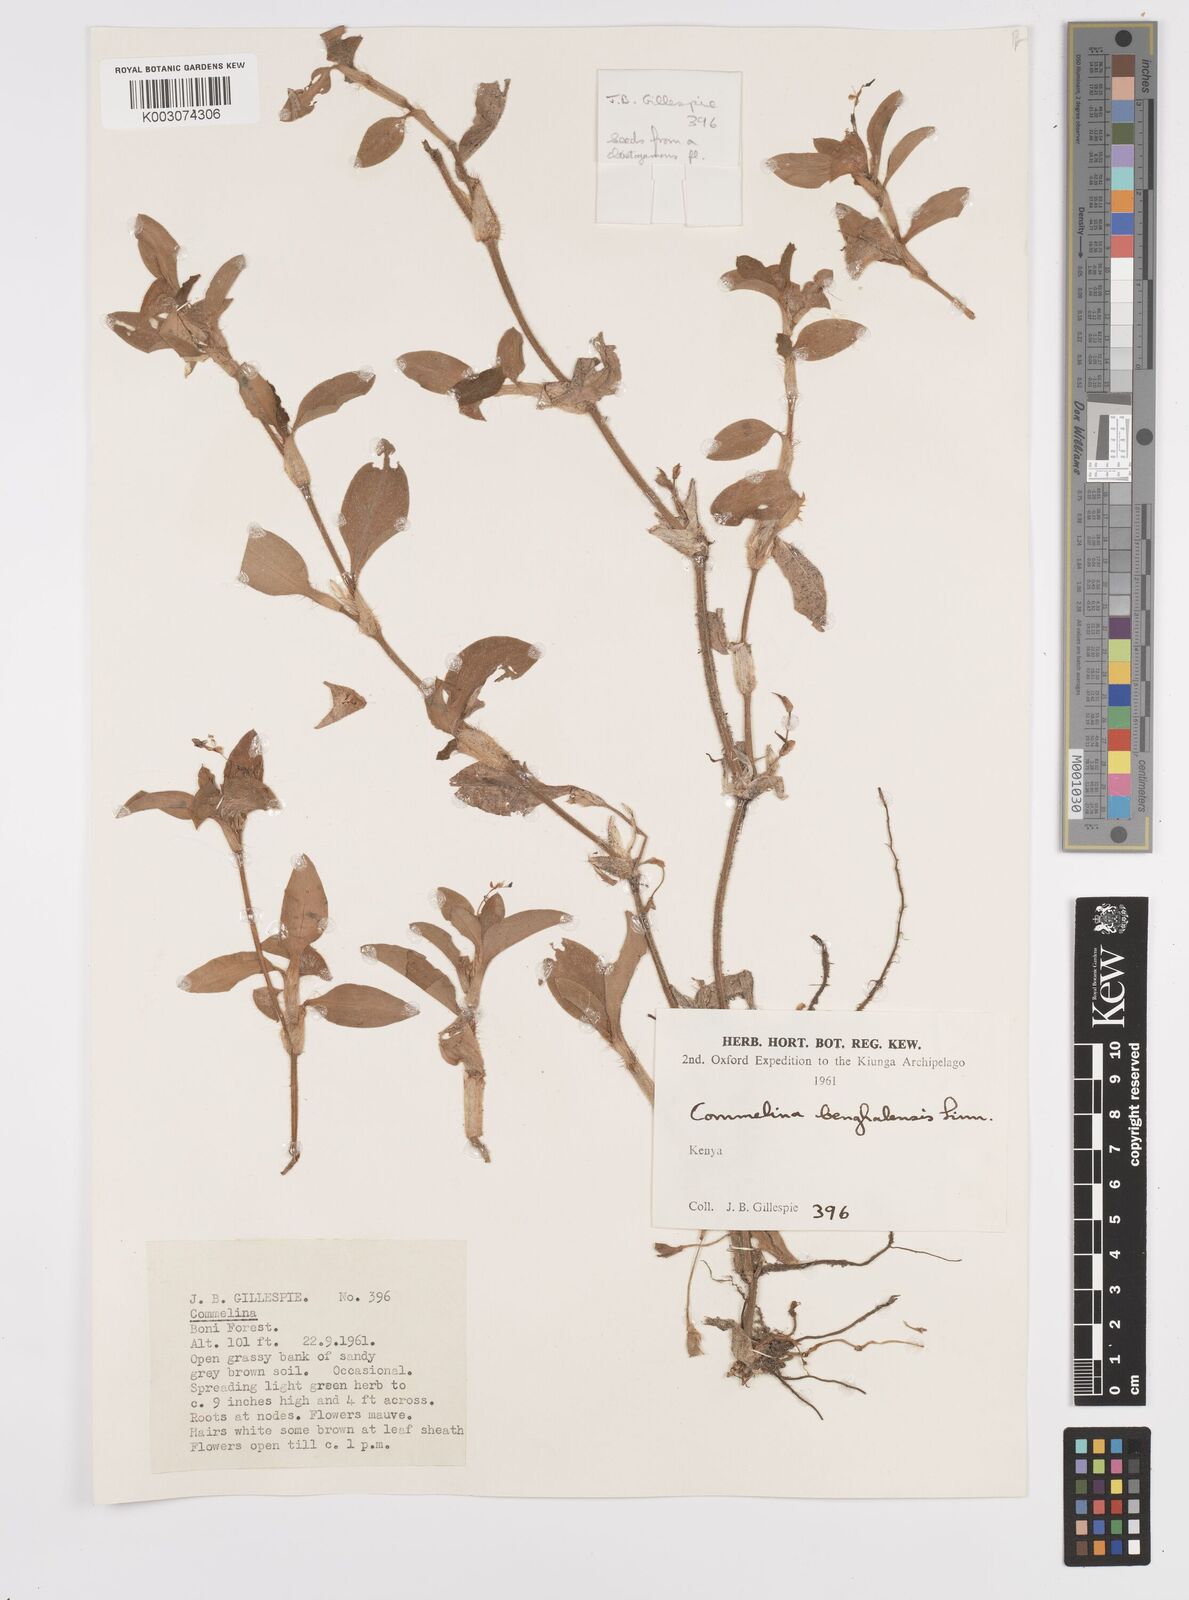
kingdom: Plantae
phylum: Tracheophyta
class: Liliopsida
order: Commelinales
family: Commelinaceae
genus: Commelina
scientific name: Commelina benghalensis
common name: Jio
